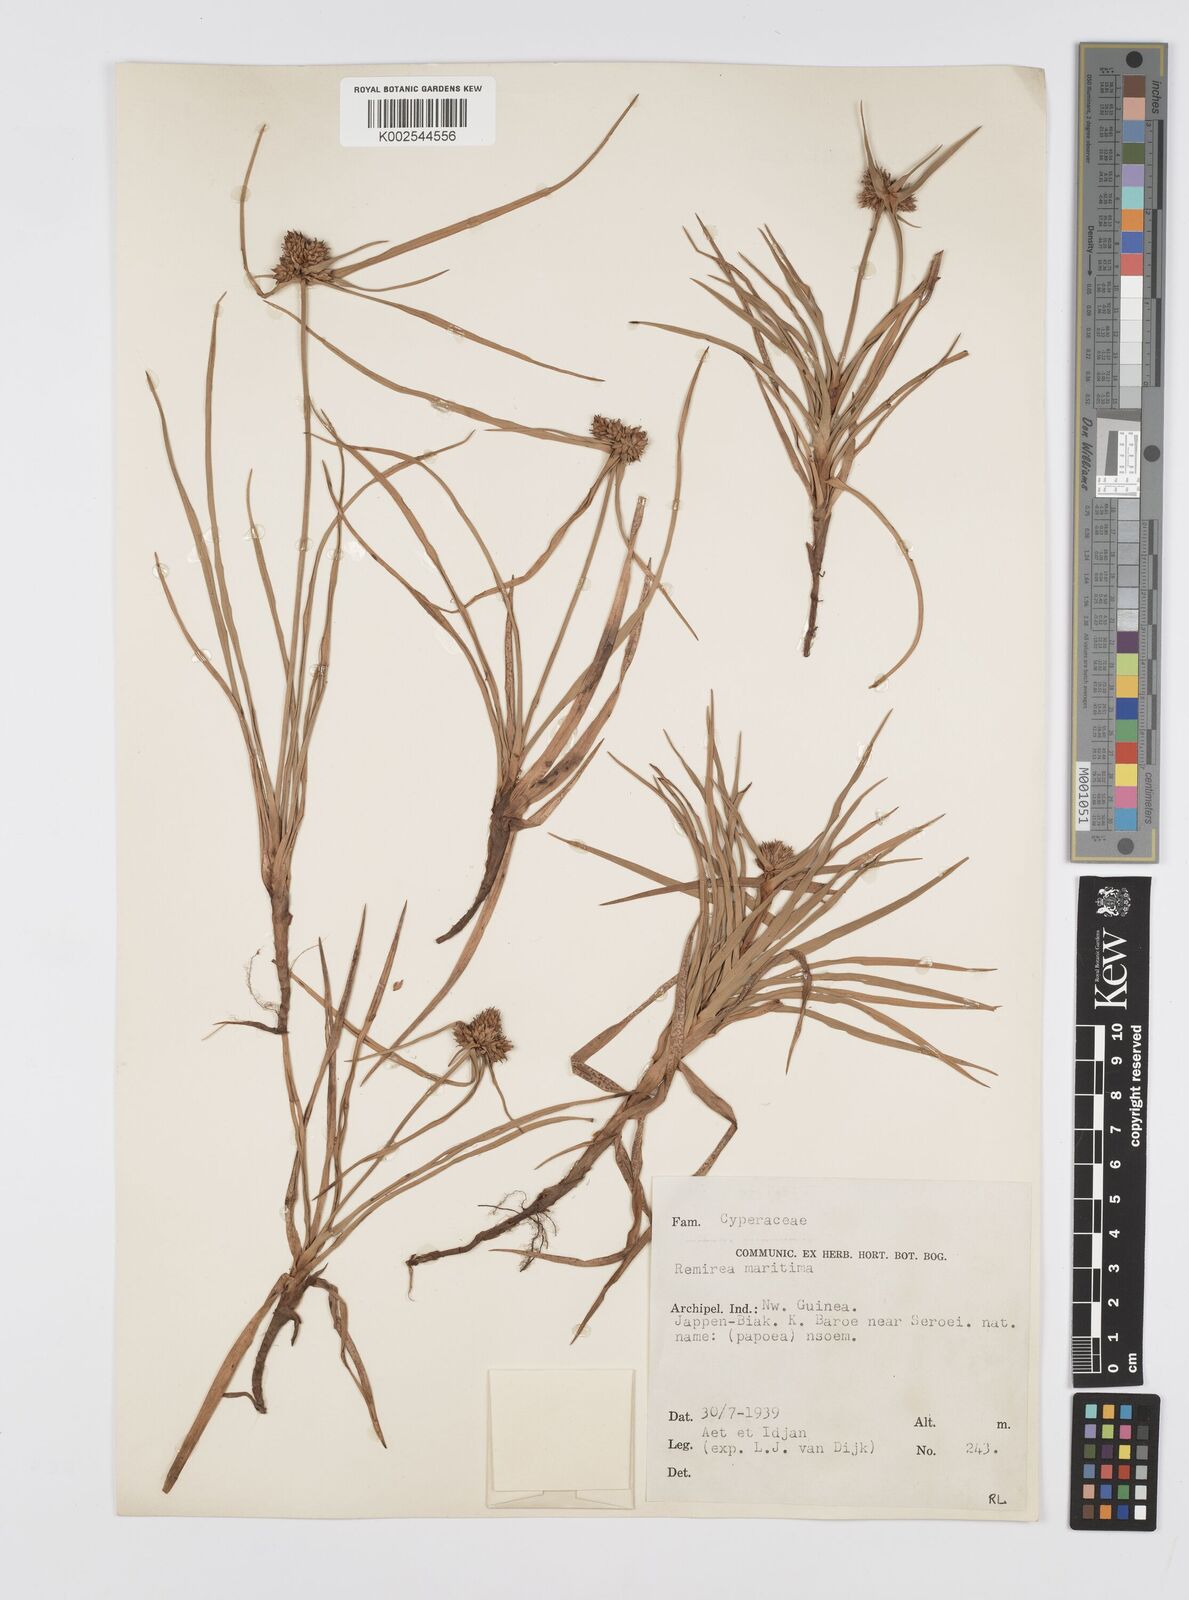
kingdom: Plantae
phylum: Tracheophyta
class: Liliopsida
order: Poales
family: Cyperaceae
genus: Cyperus
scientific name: Cyperus
